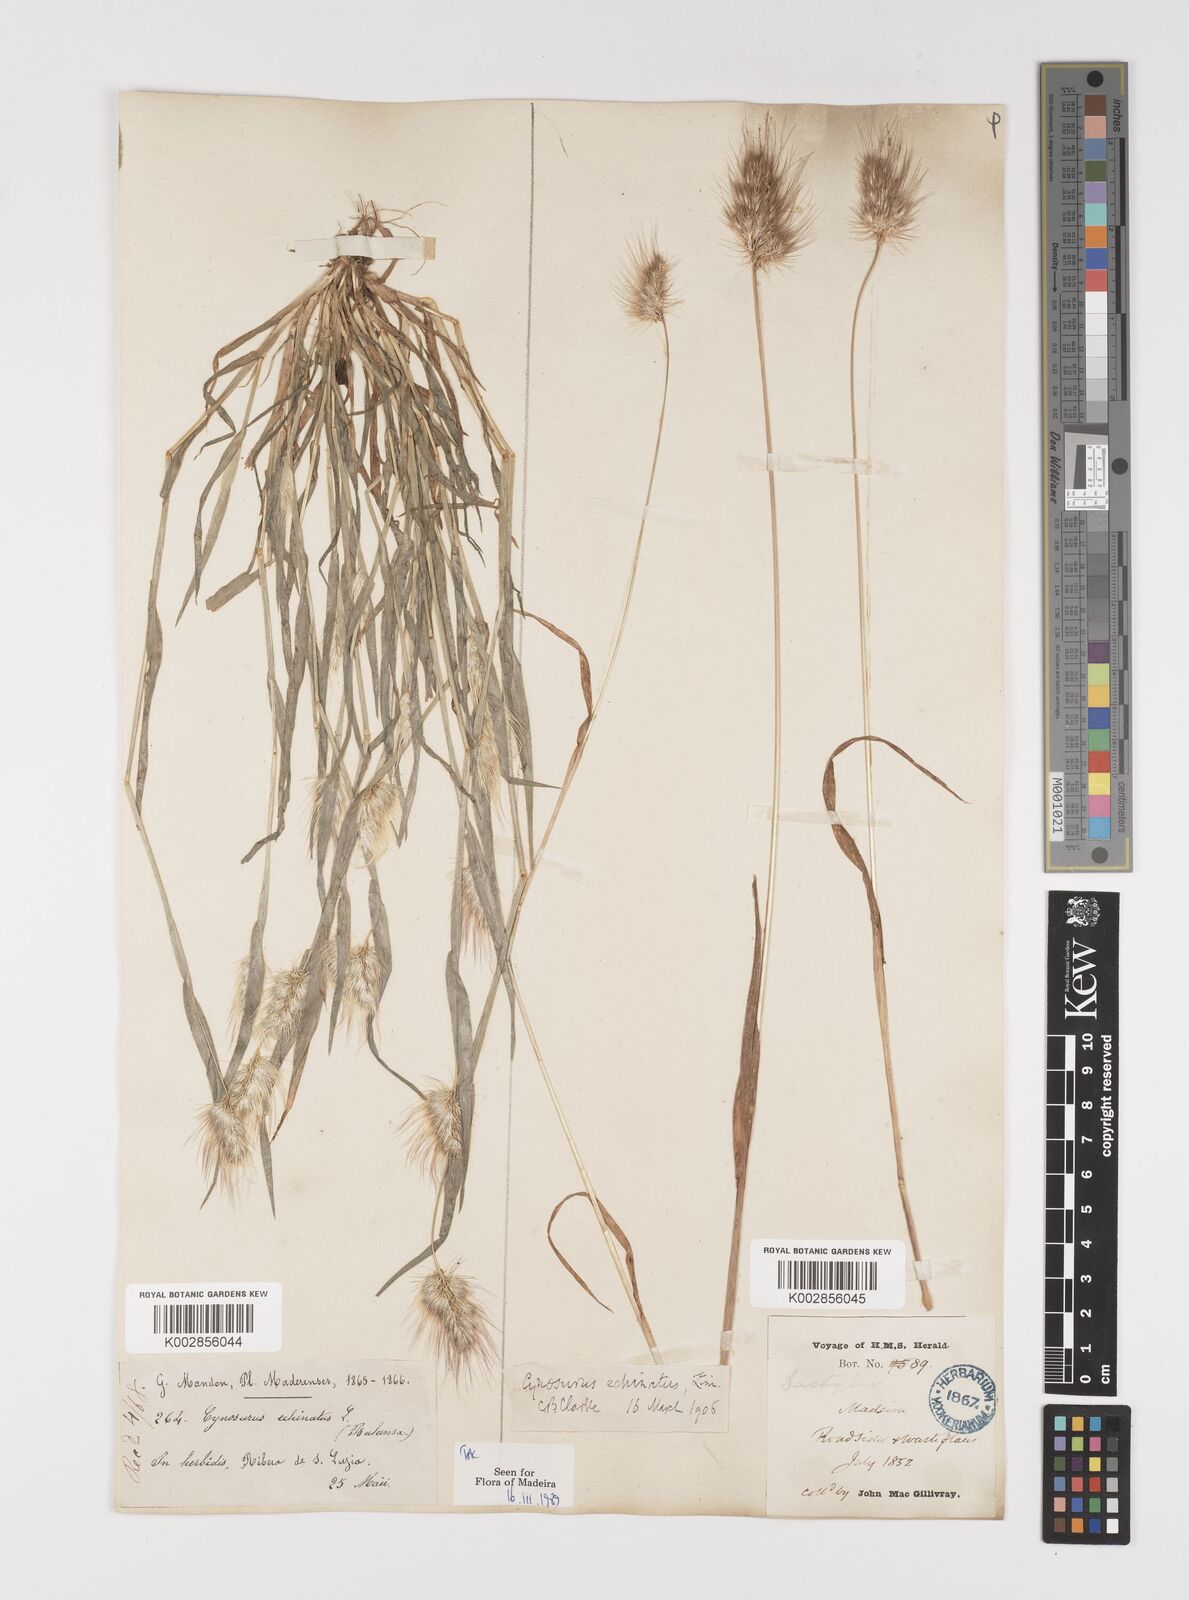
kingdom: Plantae
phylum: Tracheophyta
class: Liliopsida
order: Poales
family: Poaceae
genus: Cynosurus
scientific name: Cynosurus echinatus
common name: Rough dog's-tail
